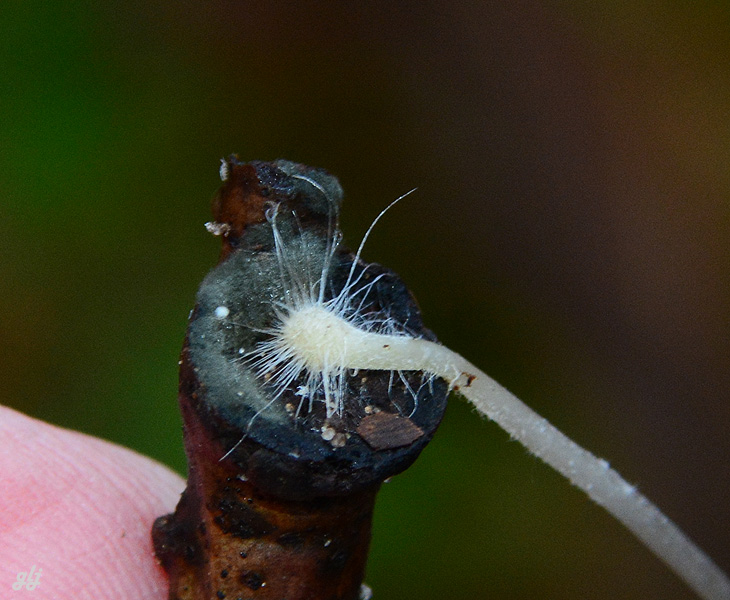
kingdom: Fungi
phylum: Basidiomycota
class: Agaricomycetes
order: Agaricales
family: Mycenaceae
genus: Mycena
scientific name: Mycena vitilis
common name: blankstokket huesvamp
